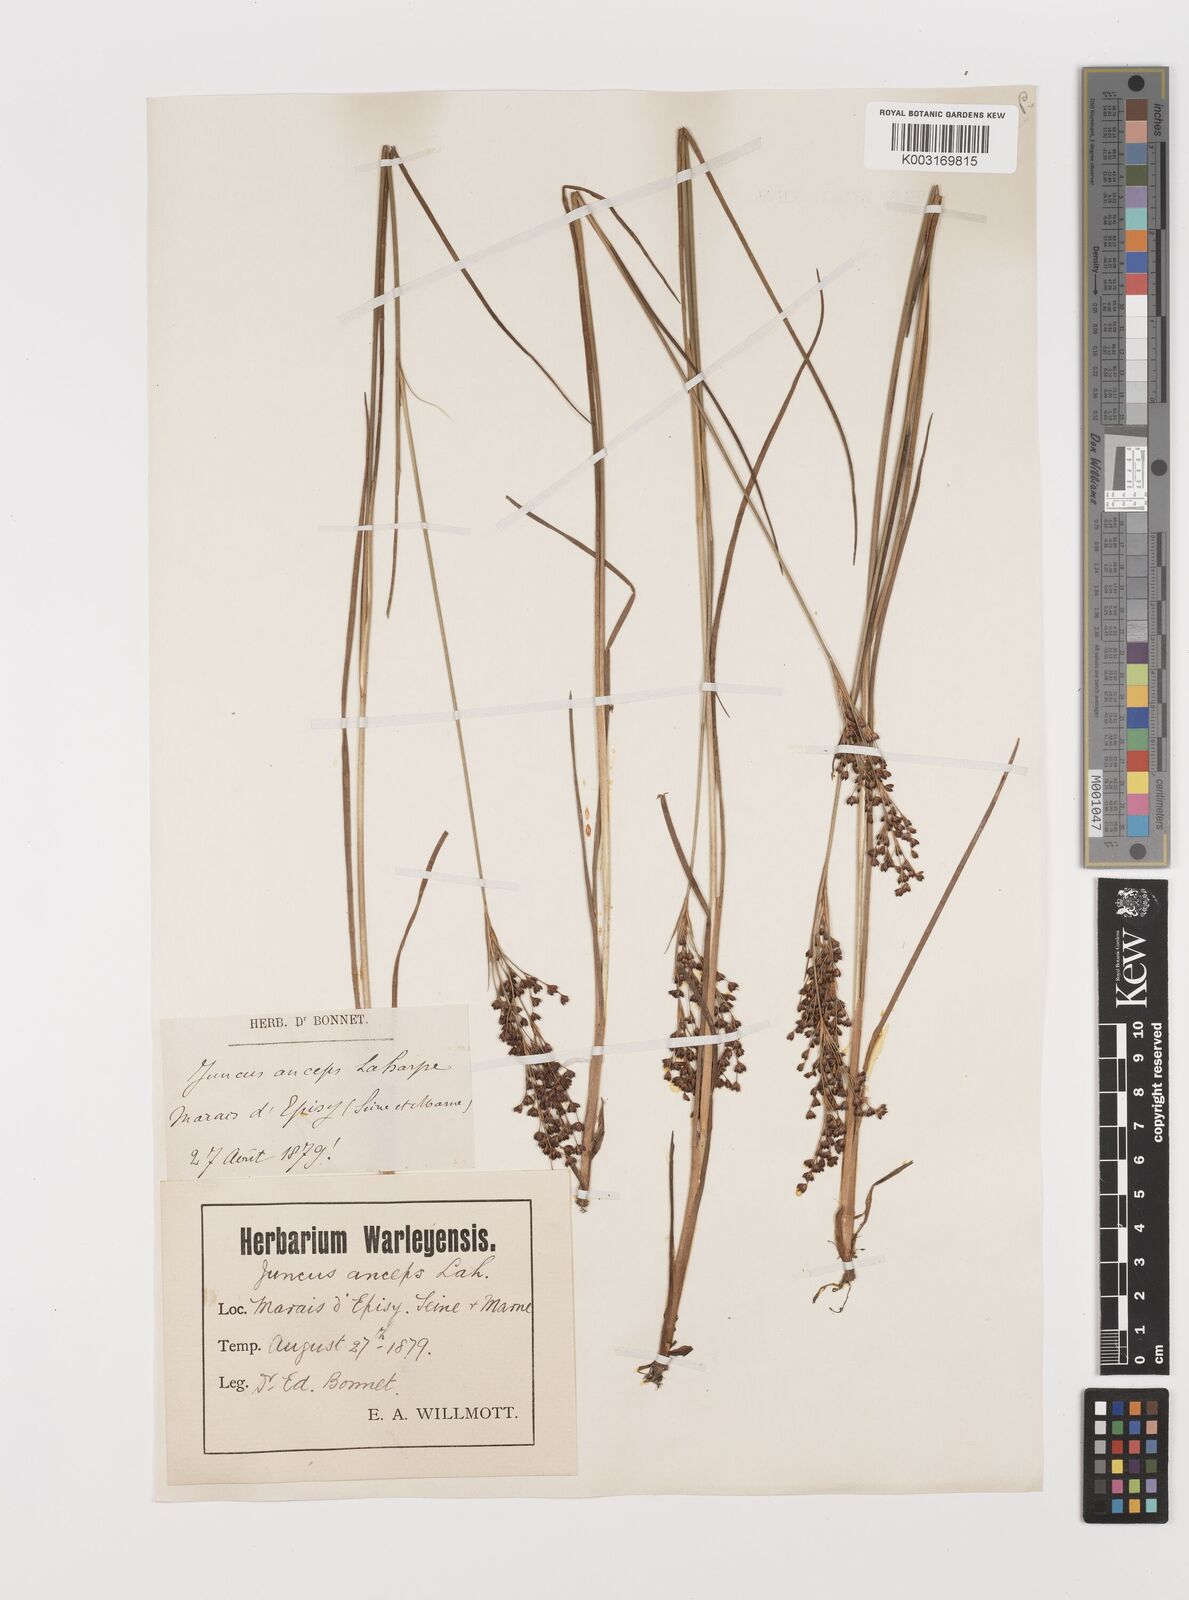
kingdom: Plantae
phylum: Tracheophyta
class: Liliopsida
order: Poales
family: Juncaceae
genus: Juncus
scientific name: Juncus anceps
